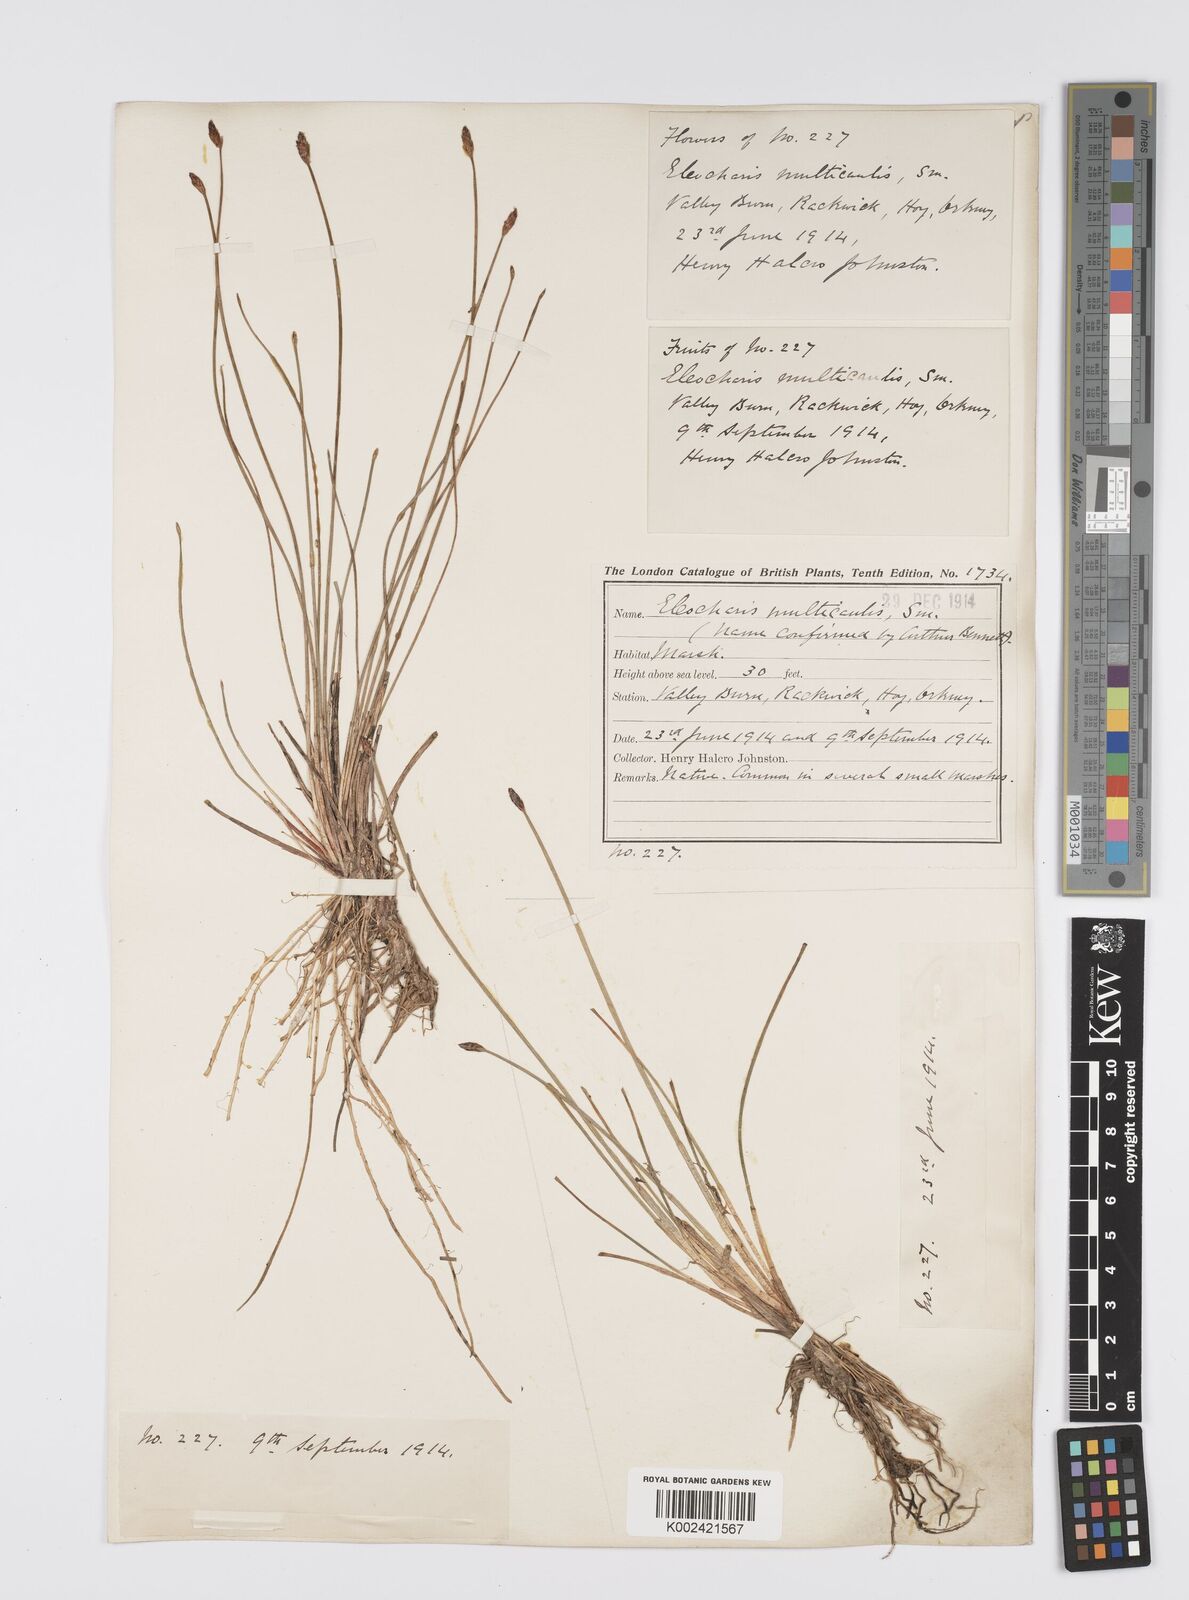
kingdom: Plantae
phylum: Tracheophyta
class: Liliopsida
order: Poales
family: Cyperaceae
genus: Eleocharis
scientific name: Eleocharis multicaulis
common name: Many-stalked spike-rush
